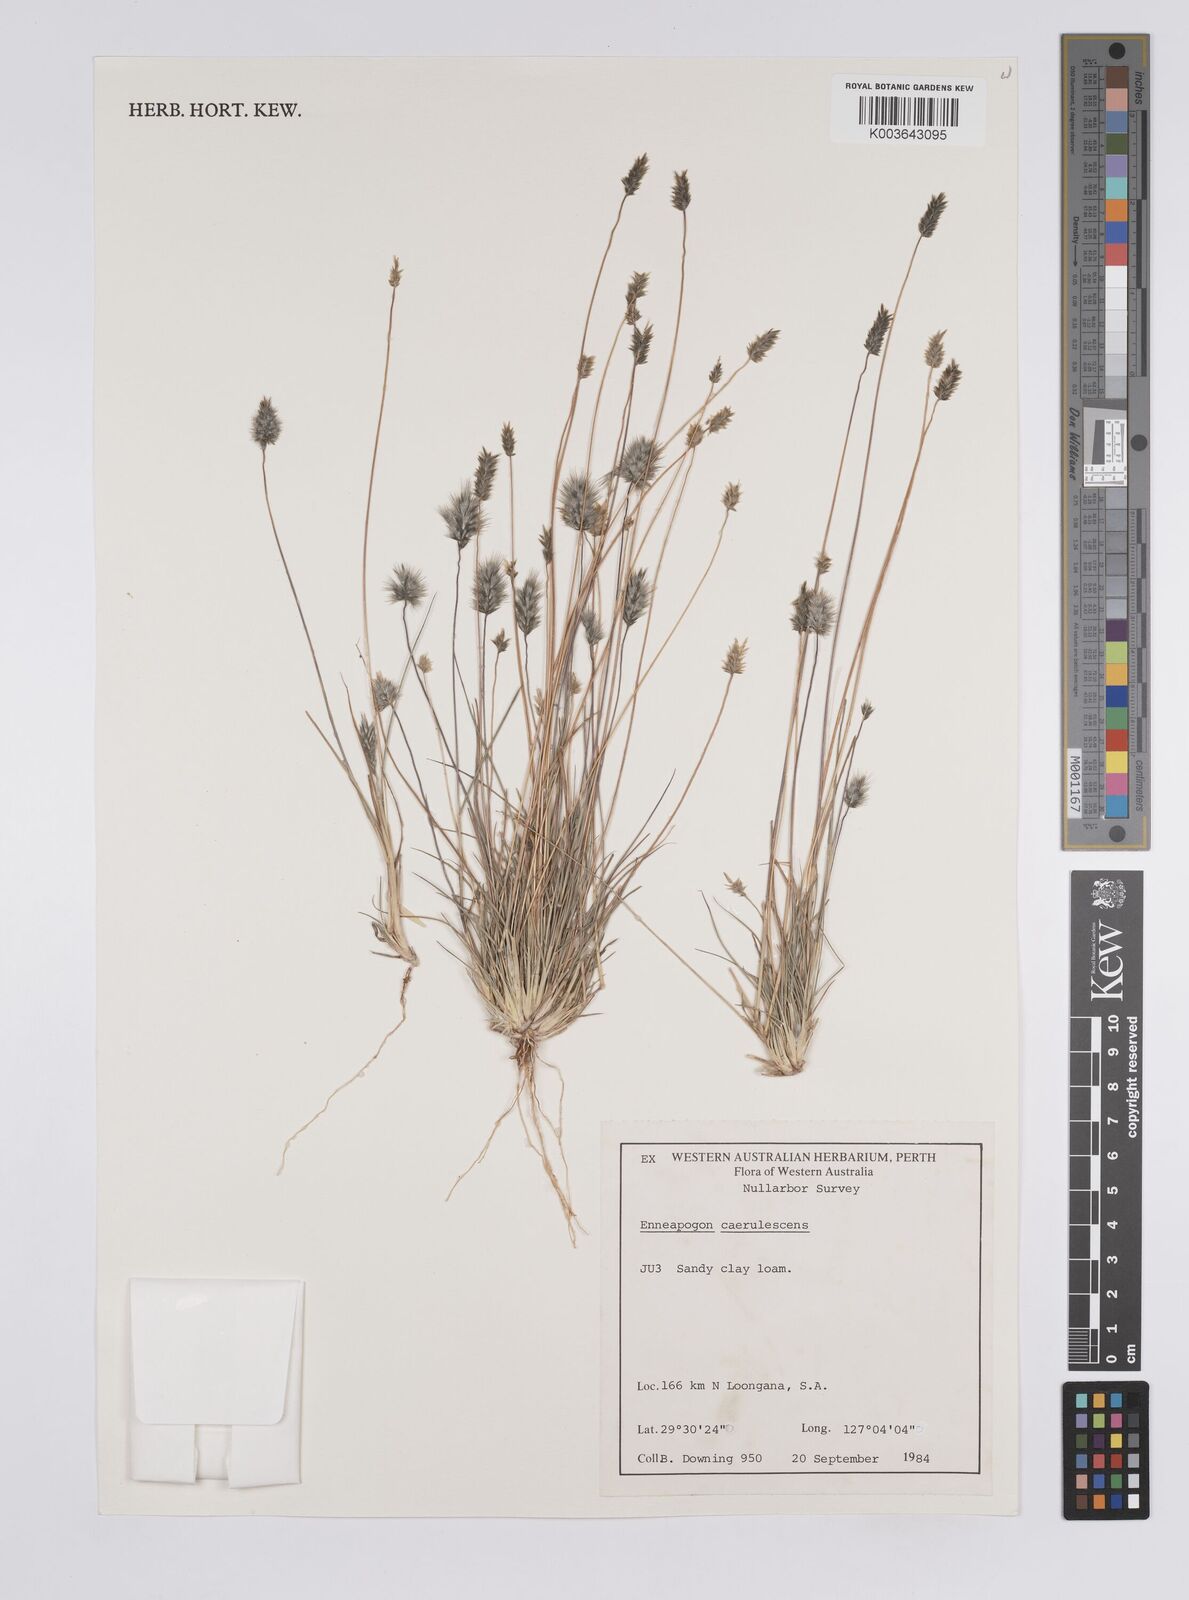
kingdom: Plantae
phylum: Tracheophyta
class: Liliopsida
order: Poales
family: Poaceae
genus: Enneapogon
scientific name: Enneapogon caerulescens
